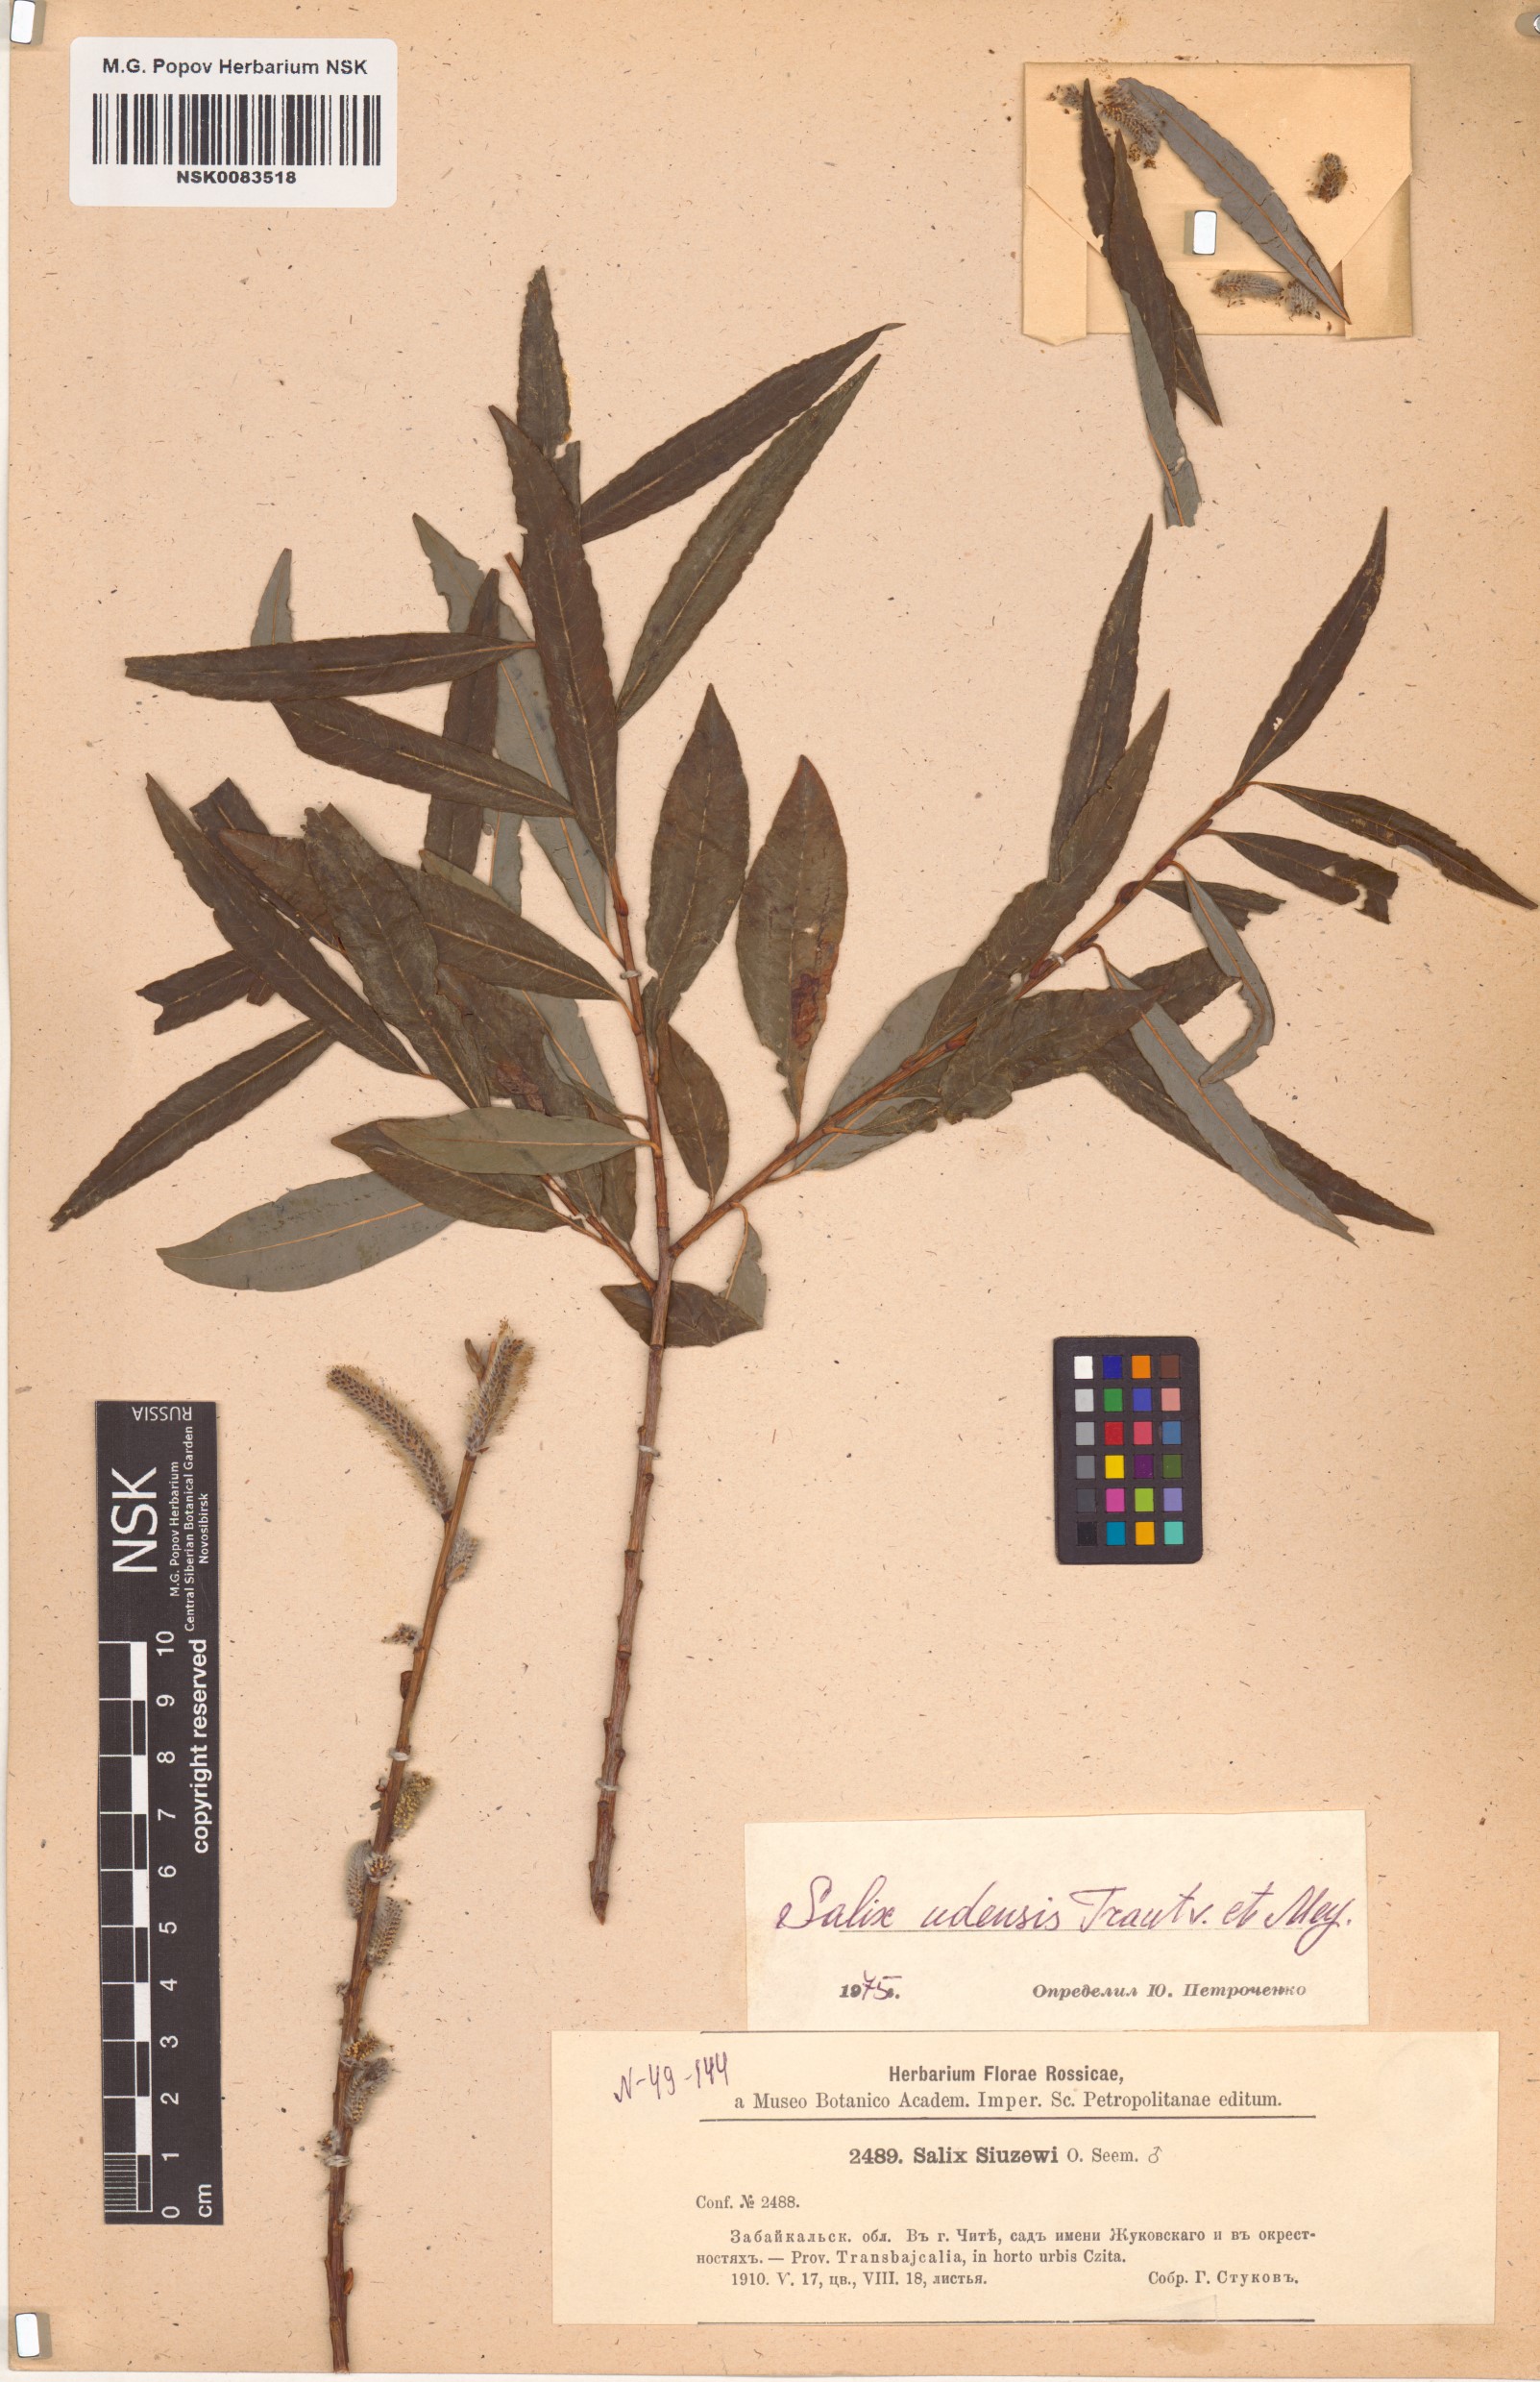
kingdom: Plantae
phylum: Tracheophyta
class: Magnoliopsida
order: Malpighiales
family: Salicaceae
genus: Salix
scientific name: Salix udensis
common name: Sachalin willow
